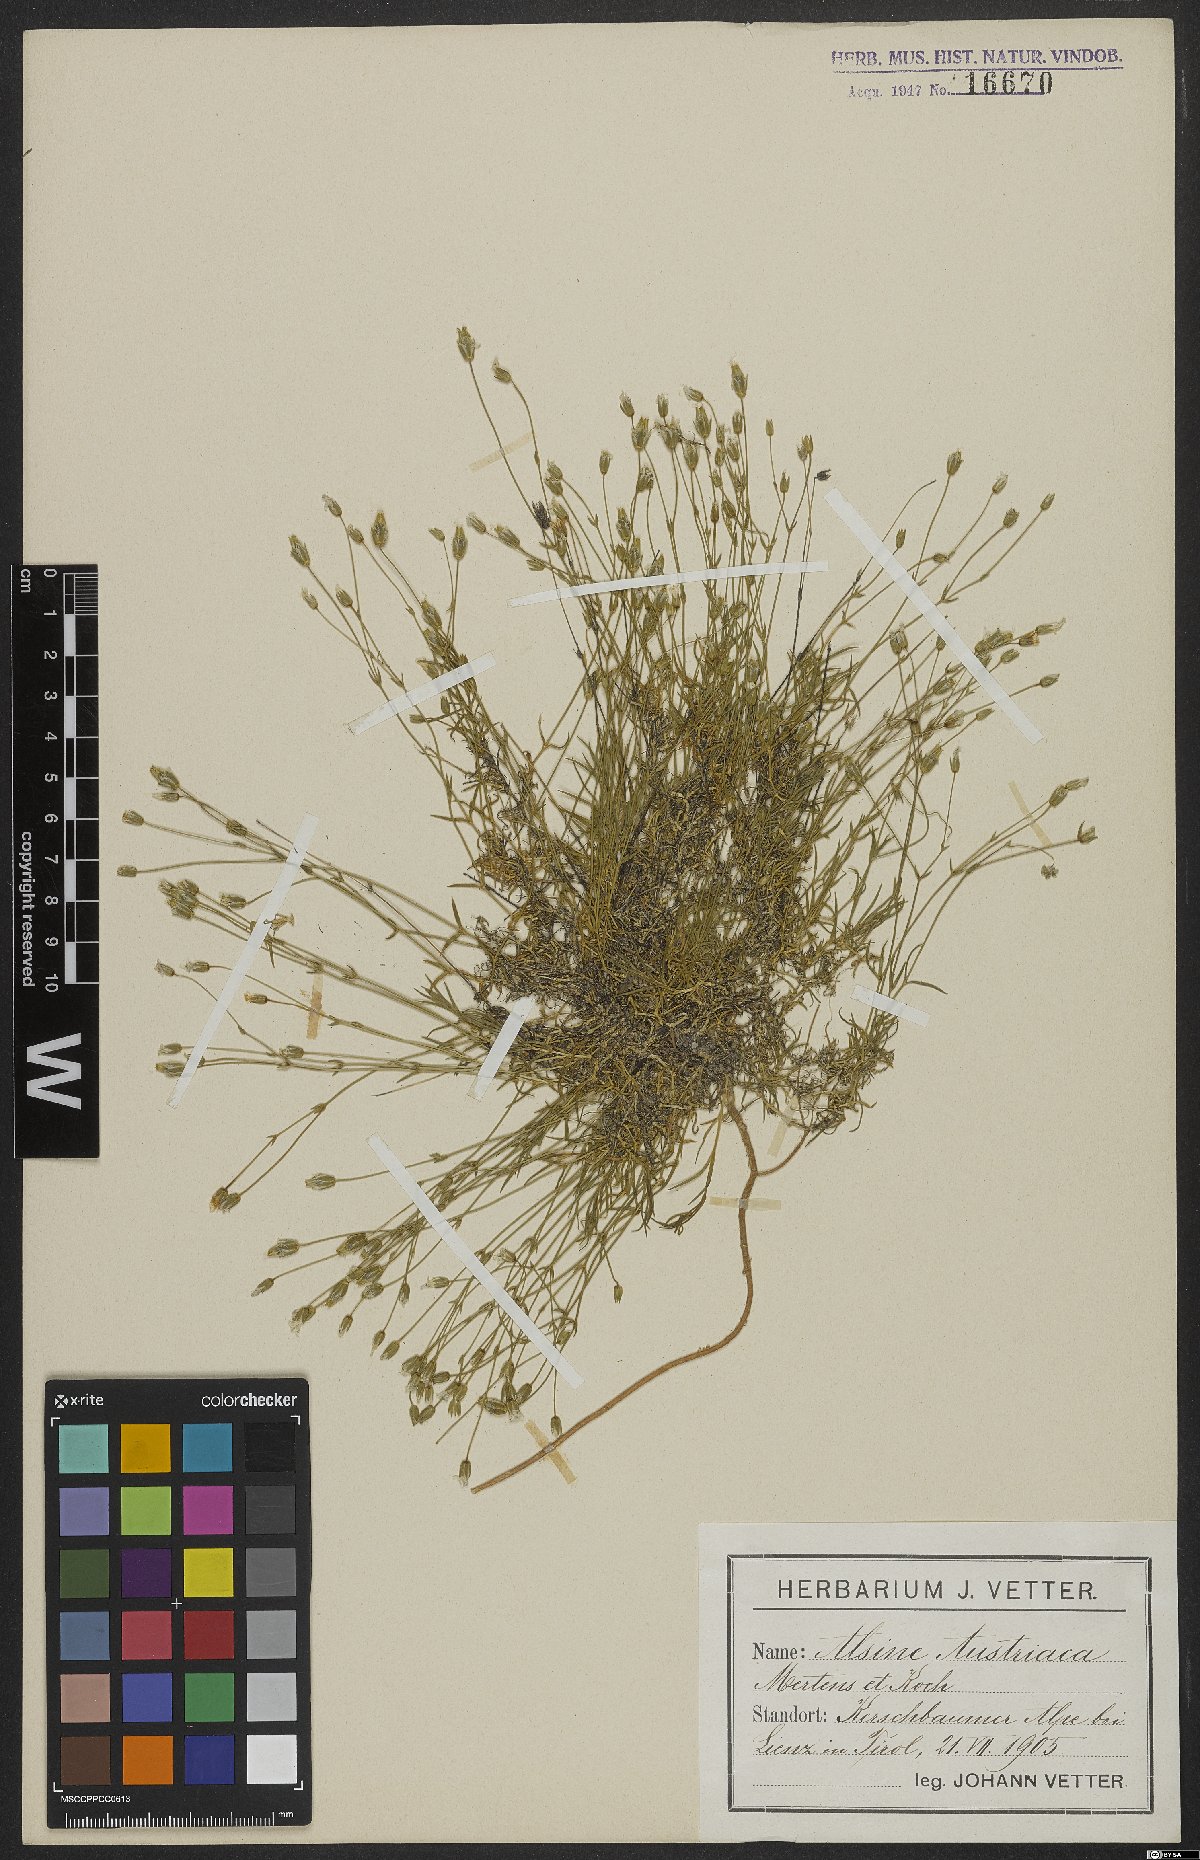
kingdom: Plantae
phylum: Tracheophyta
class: Magnoliopsida
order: Caryophyllales
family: Caryophyllaceae
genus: Sabulina
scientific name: Sabulina austriaca
